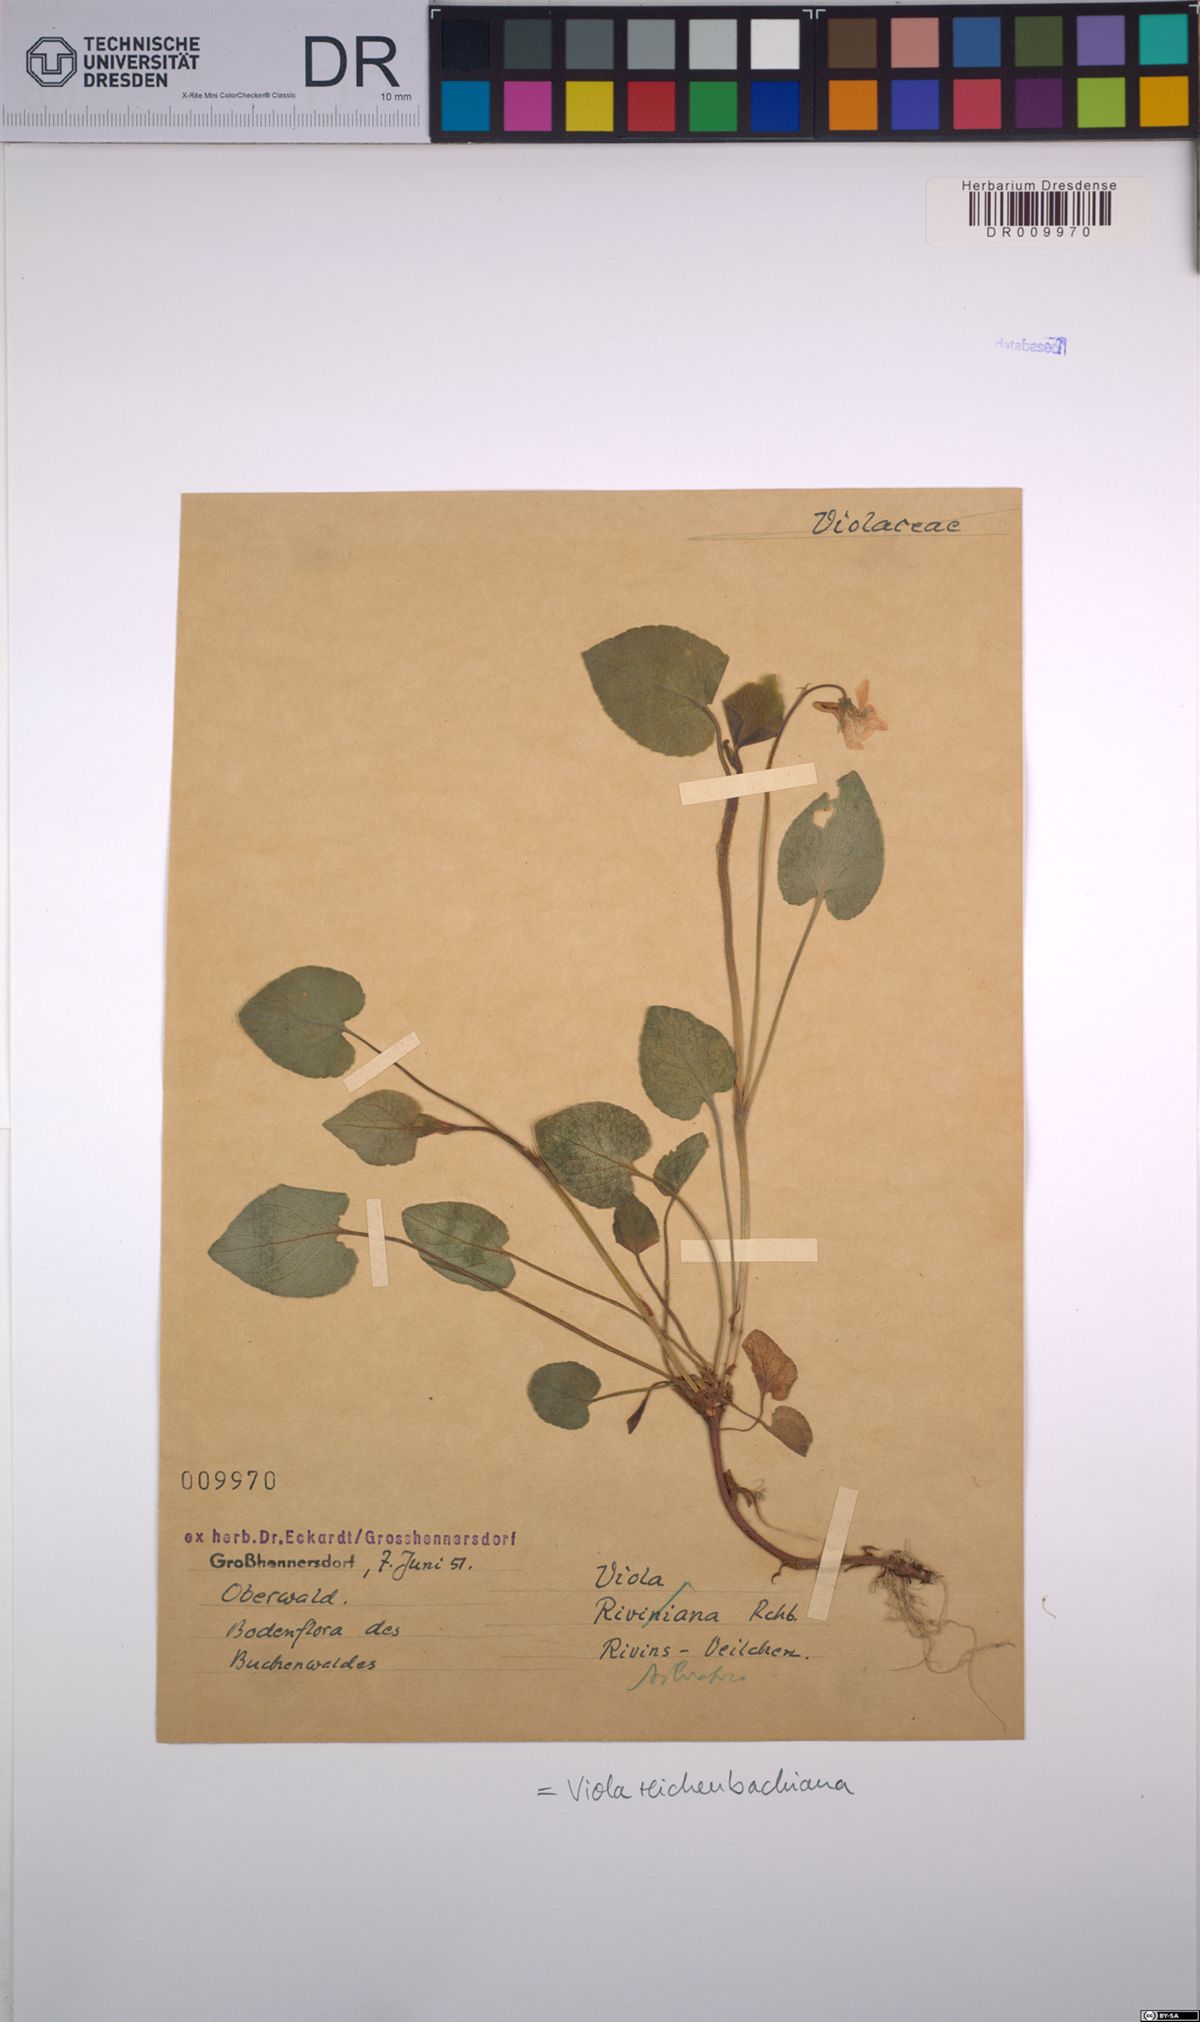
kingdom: Plantae
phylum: Tracheophyta
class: Magnoliopsida
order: Malpighiales
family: Violaceae
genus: Viola
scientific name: Viola reichenbachiana
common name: Early dog-violet
